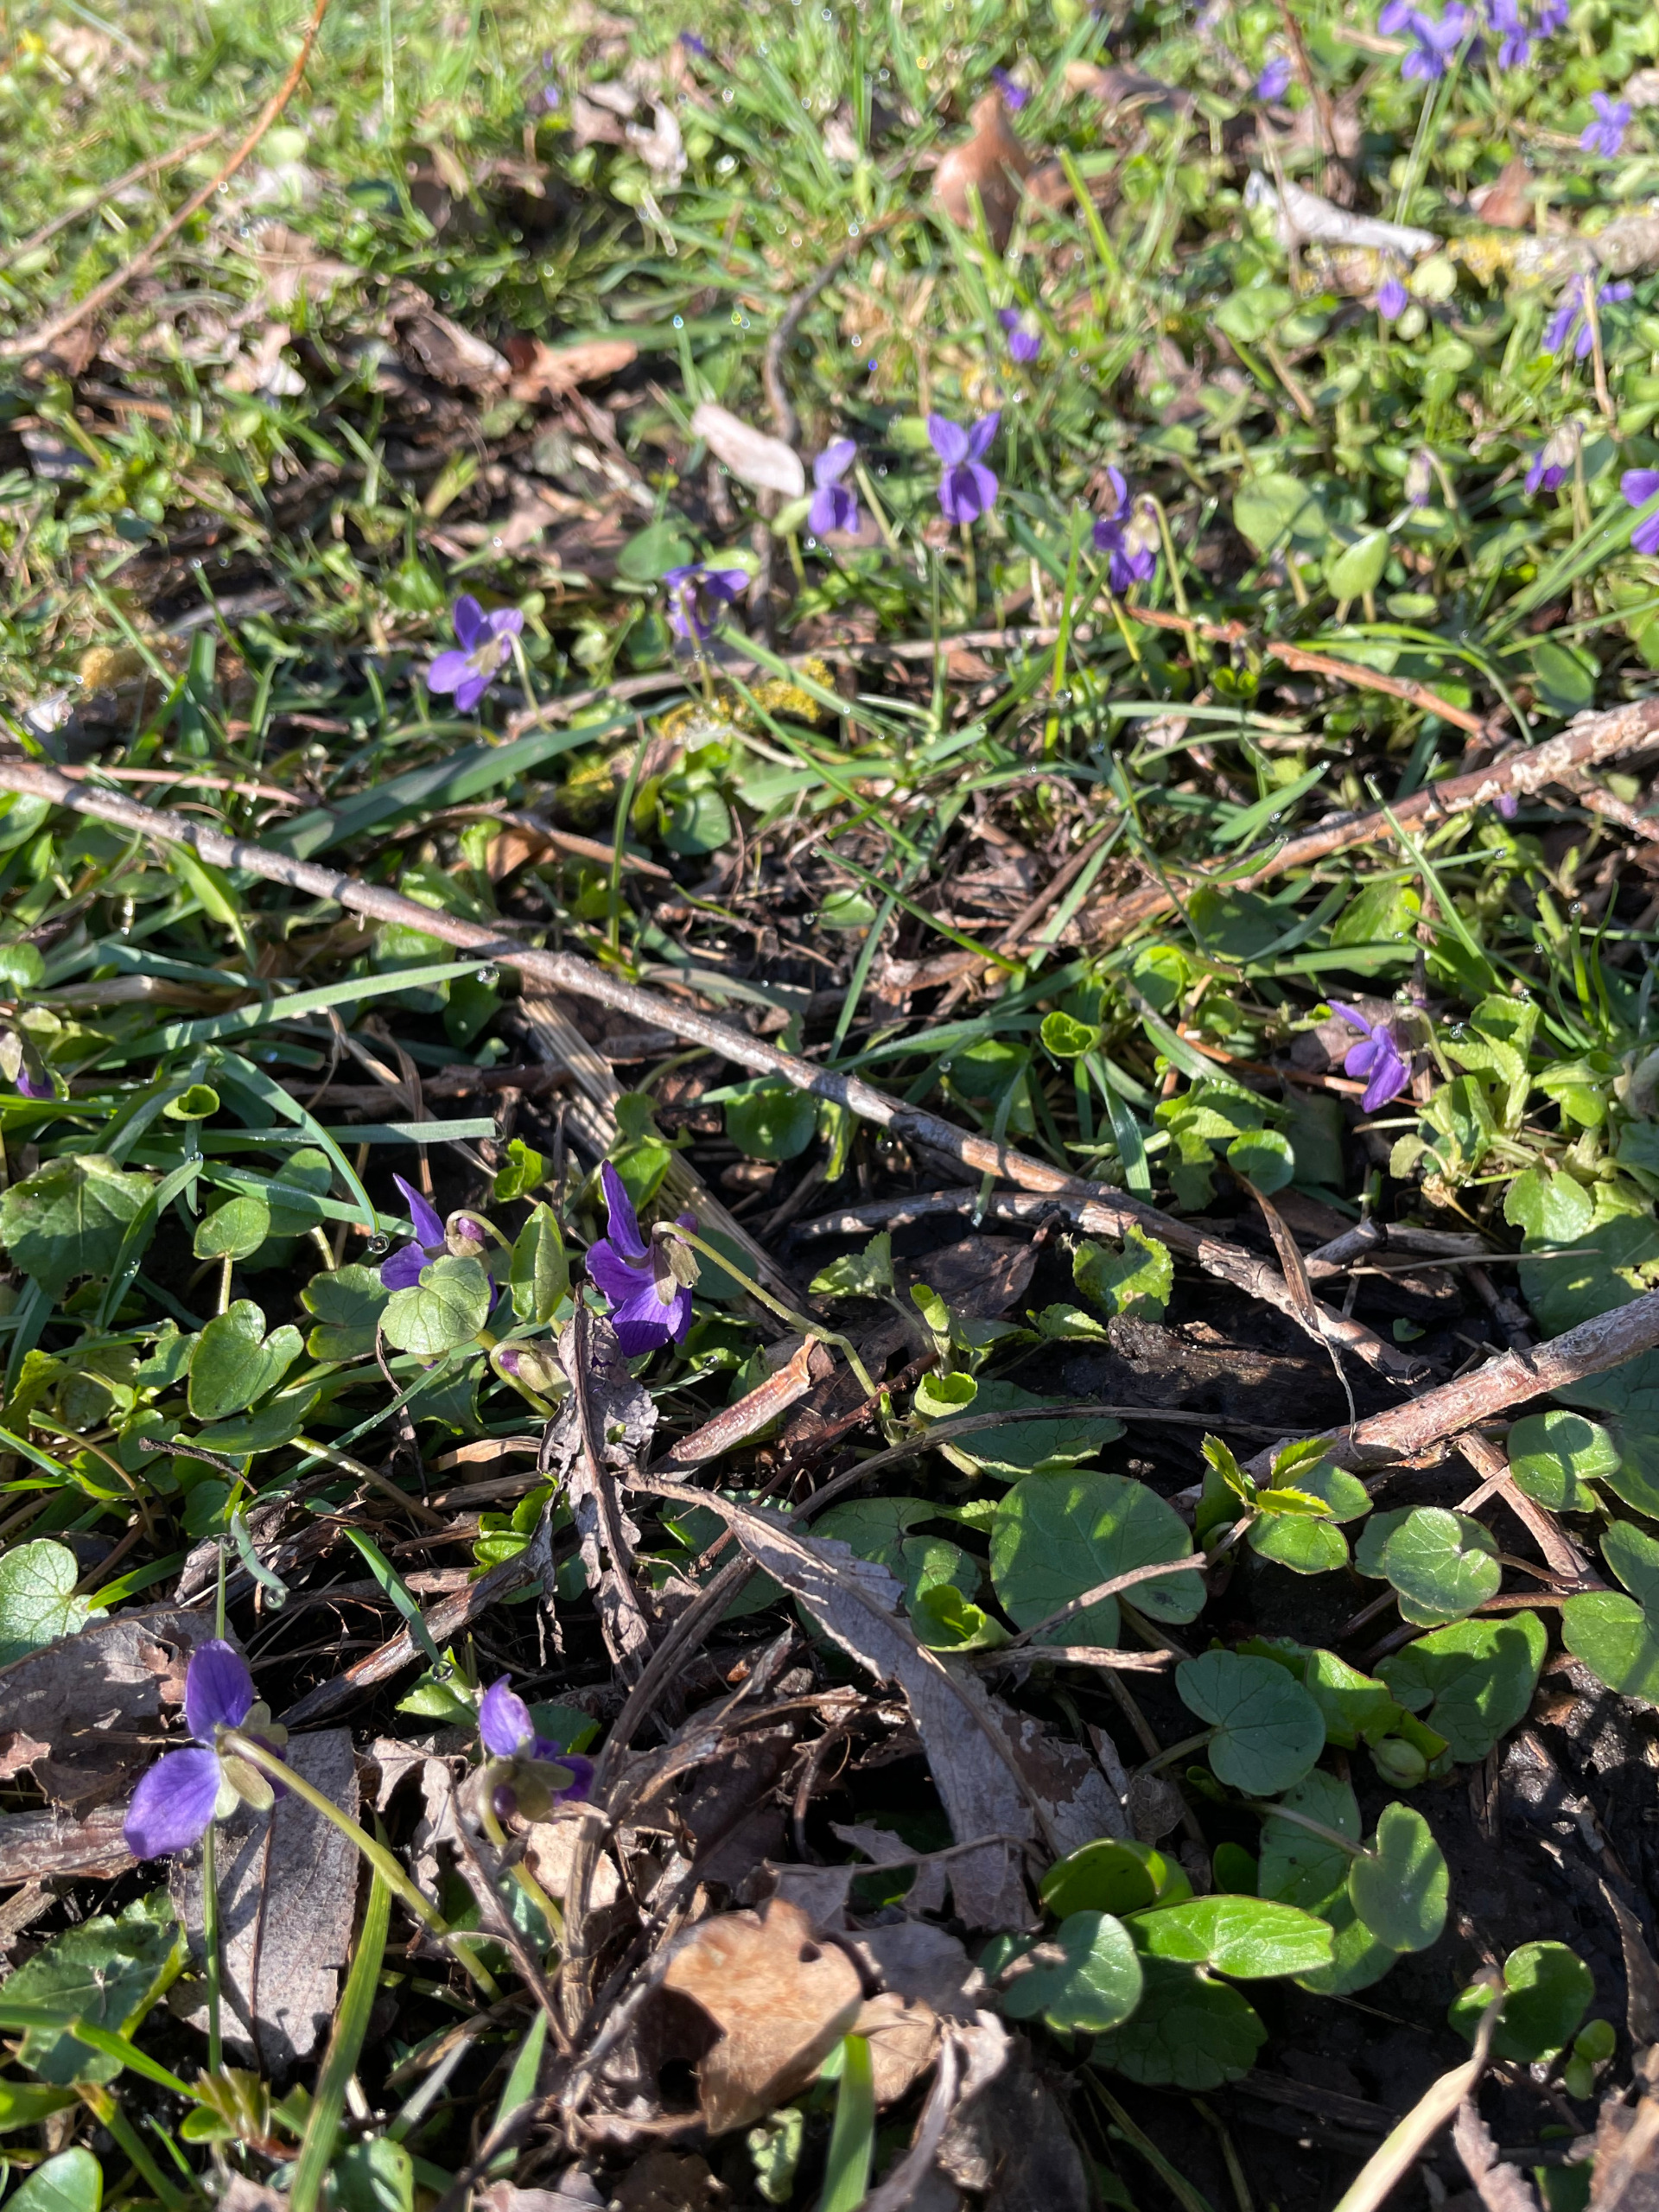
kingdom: Plantae
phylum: Tracheophyta
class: Magnoliopsida
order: Malpighiales
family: Violaceae
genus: Viola
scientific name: Viola odorata
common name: Marts-viol
